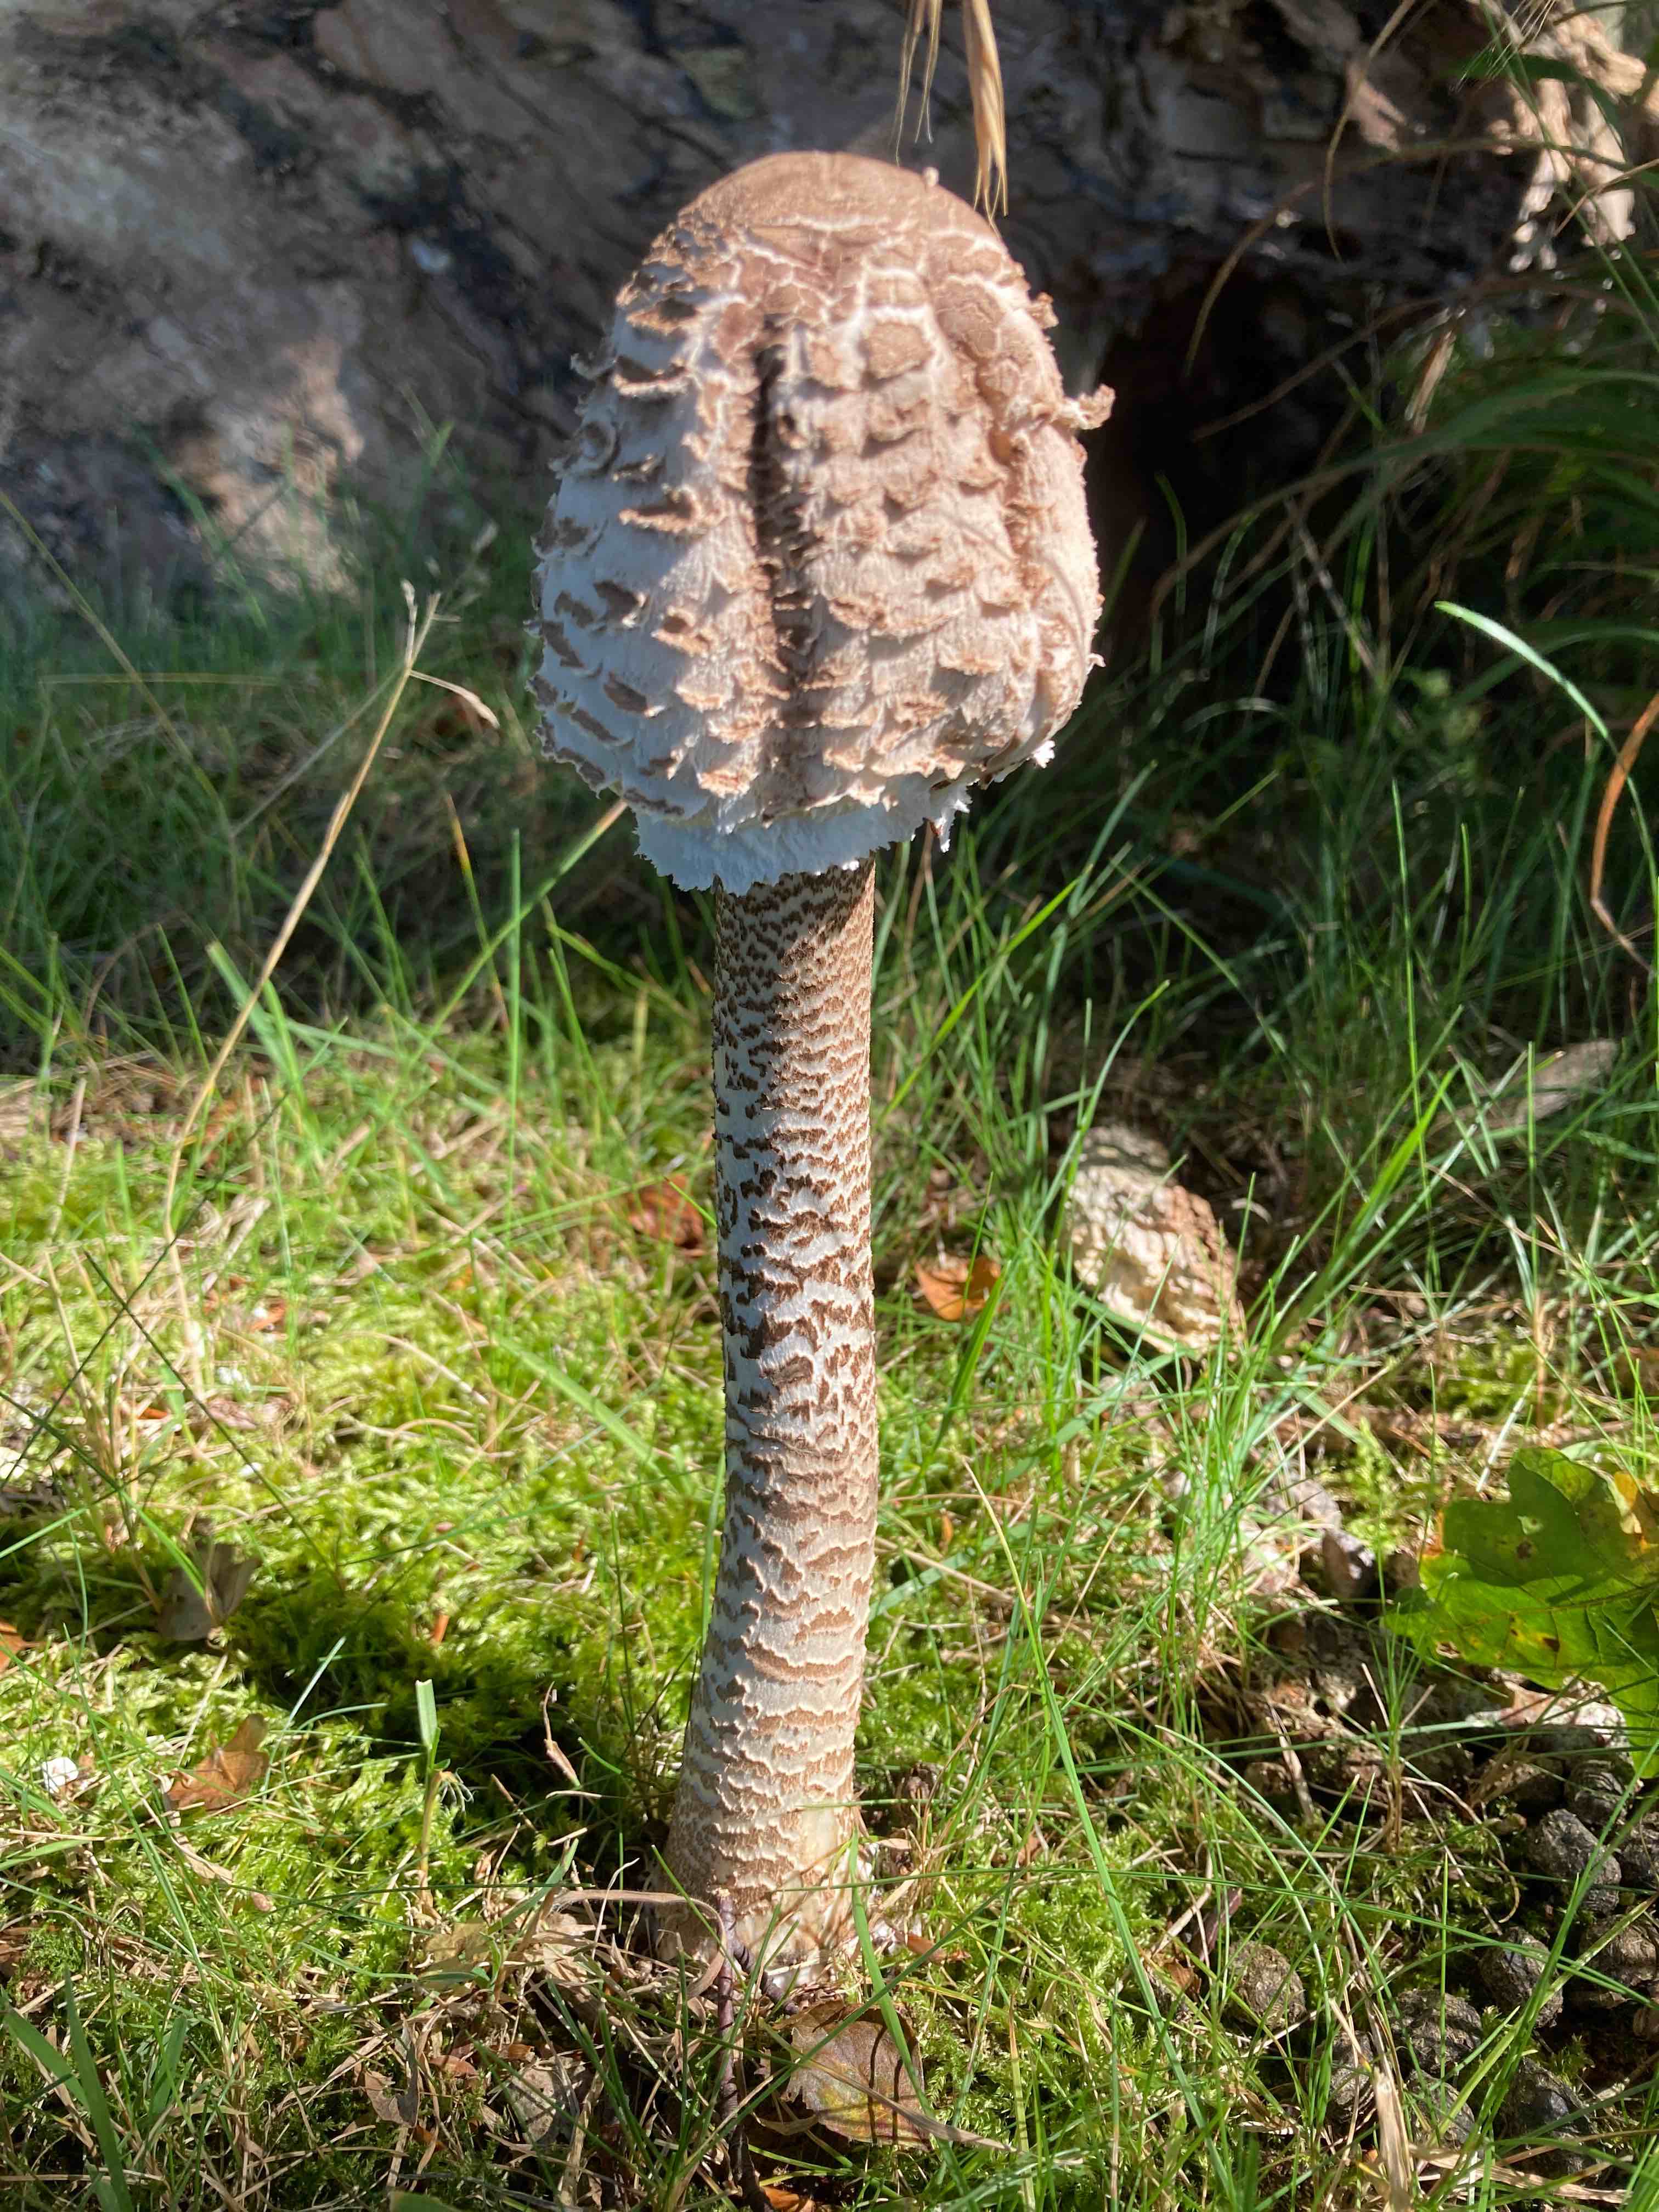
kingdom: Fungi
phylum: Basidiomycota
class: Agaricomycetes
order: Agaricales
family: Agaricaceae
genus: Macrolepiota
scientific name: Macrolepiota procera
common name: stor kæmpeparasolhat
